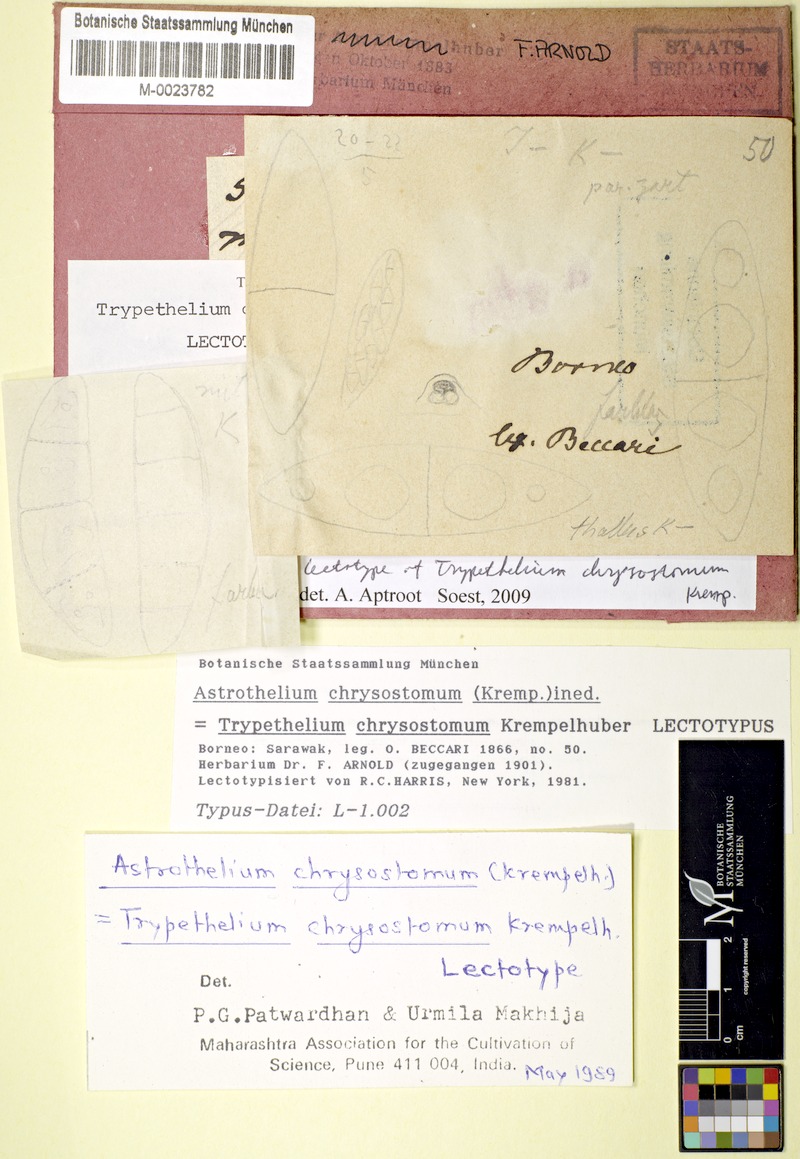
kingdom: Fungi
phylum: Ascomycota
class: Dothideomycetes
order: Trypetheliales
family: Trypetheliaceae
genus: Astrothelium
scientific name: Astrothelium cinnamomeum
